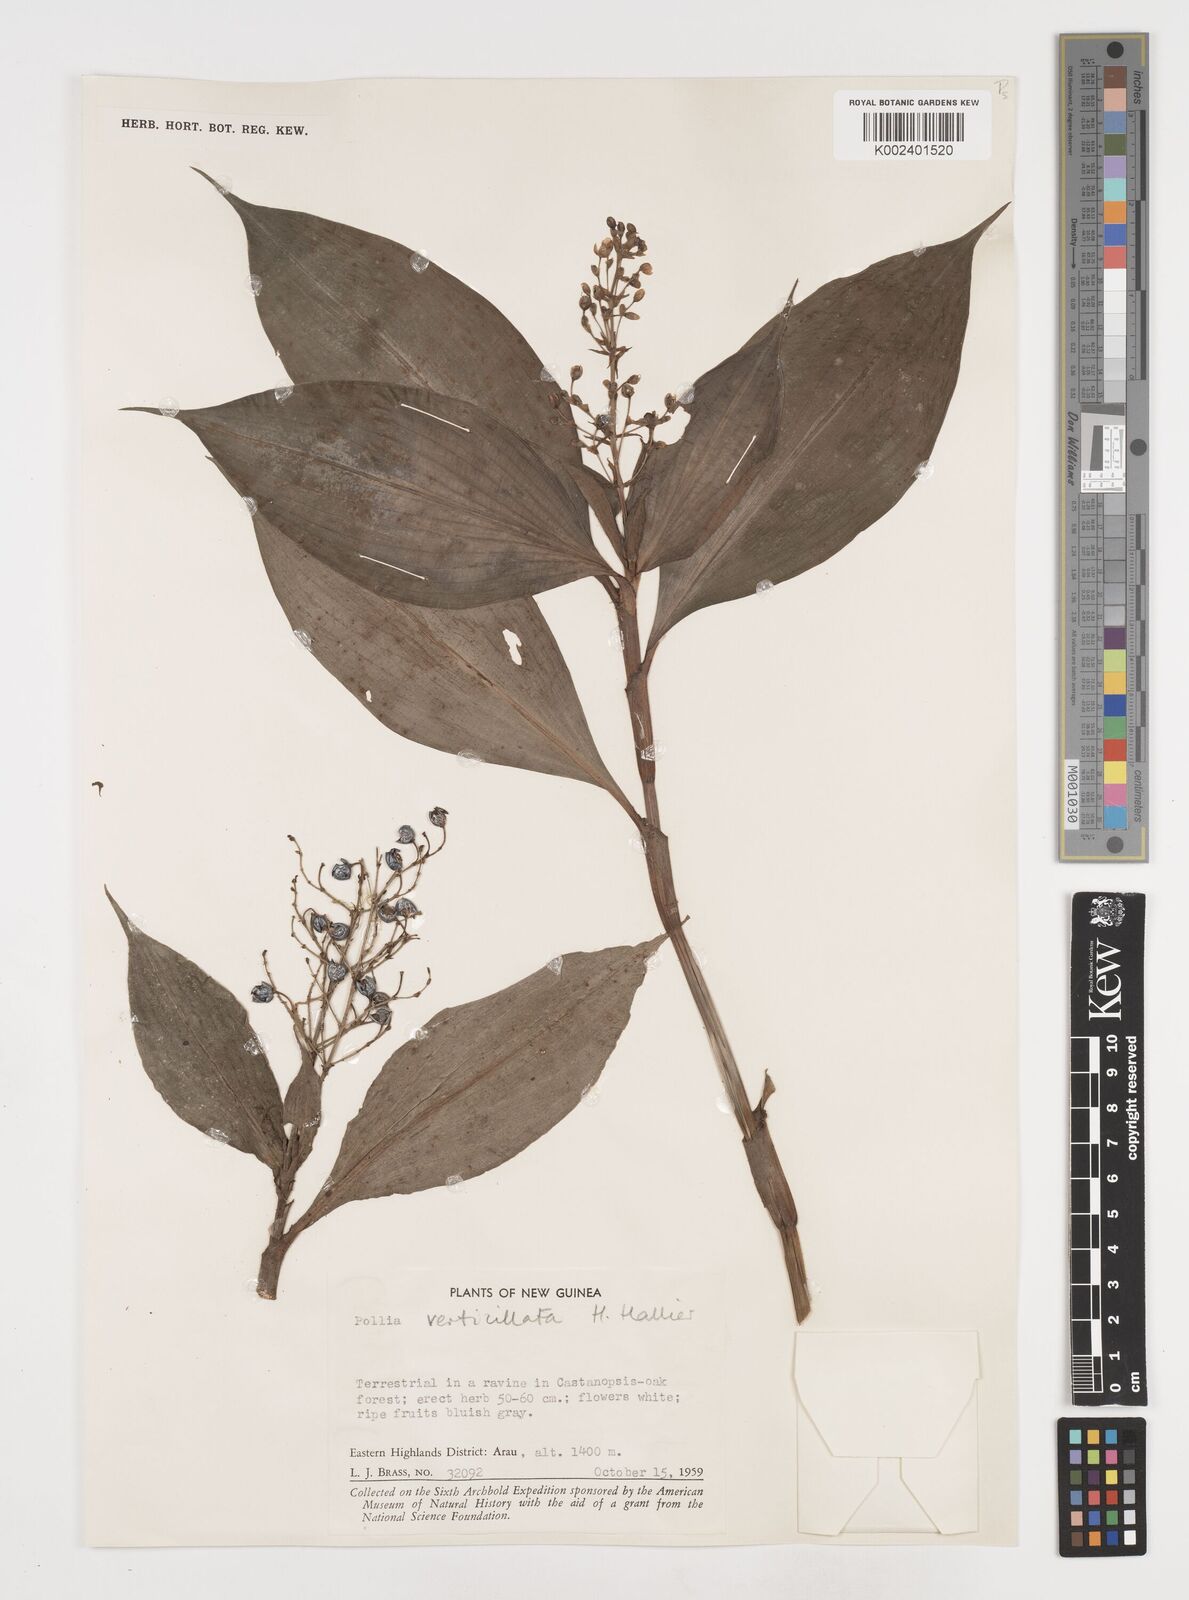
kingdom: Plantae
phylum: Tracheophyta
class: Liliopsida
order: Commelinales
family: Commelinaceae
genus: Pollia
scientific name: Pollia verticillata
